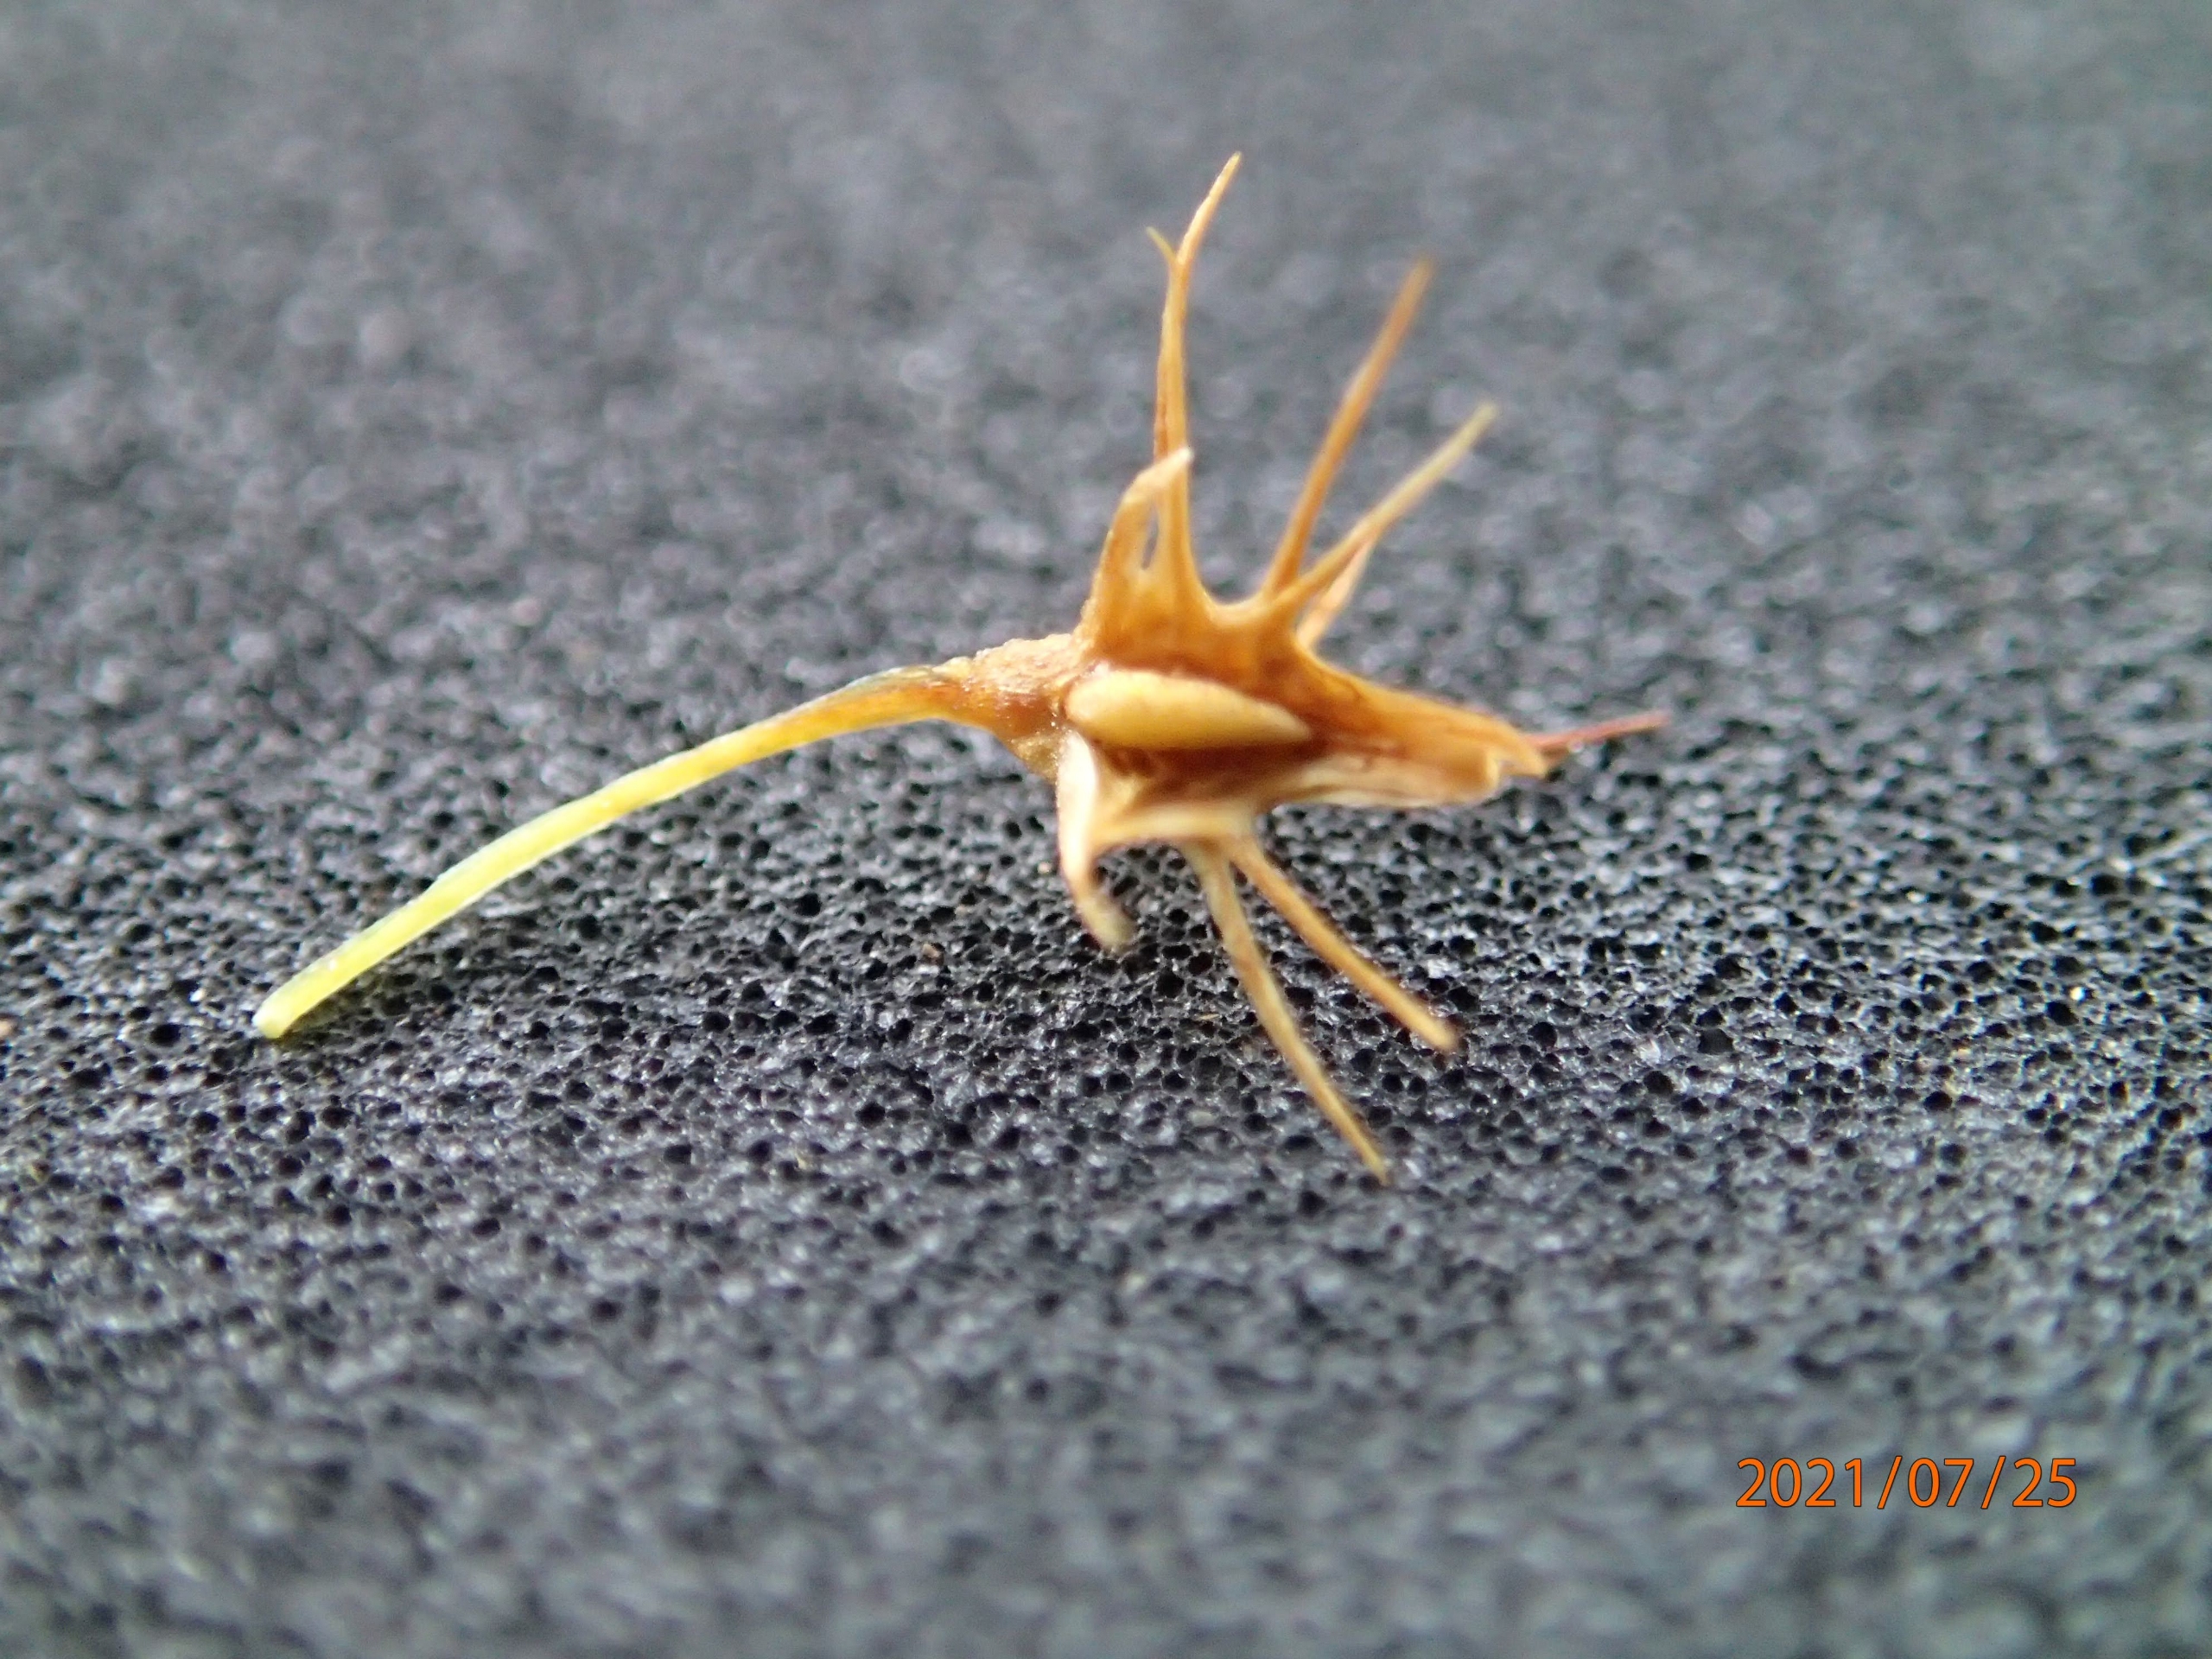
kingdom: Plantae
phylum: Tracheophyta
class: Magnoliopsida
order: Caryophyllales
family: Polygonaceae
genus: Rumex
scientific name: Rumex maritimus
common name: Strand-skræppe
